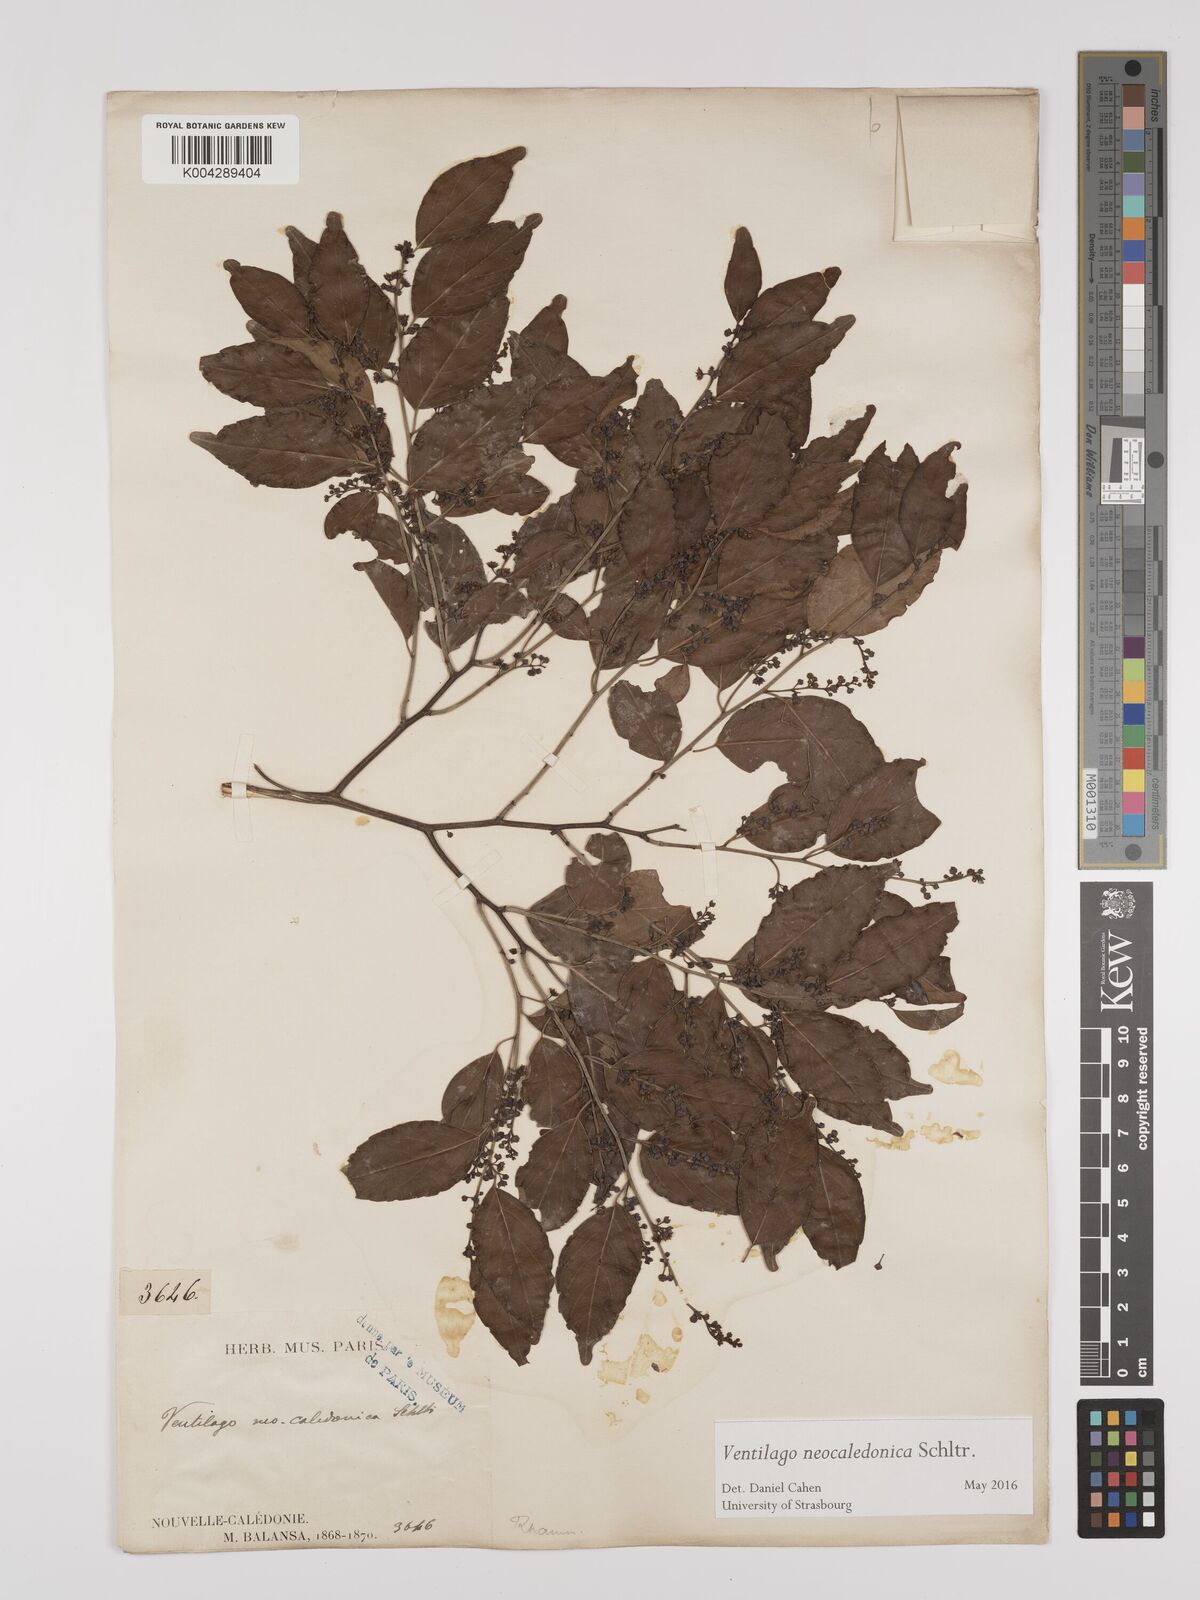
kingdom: Plantae
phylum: Tracheophyta
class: Magnoliopsida
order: Rosales
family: Rhamnaceae
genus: Ventilago
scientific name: Ventilago neocaledonica
